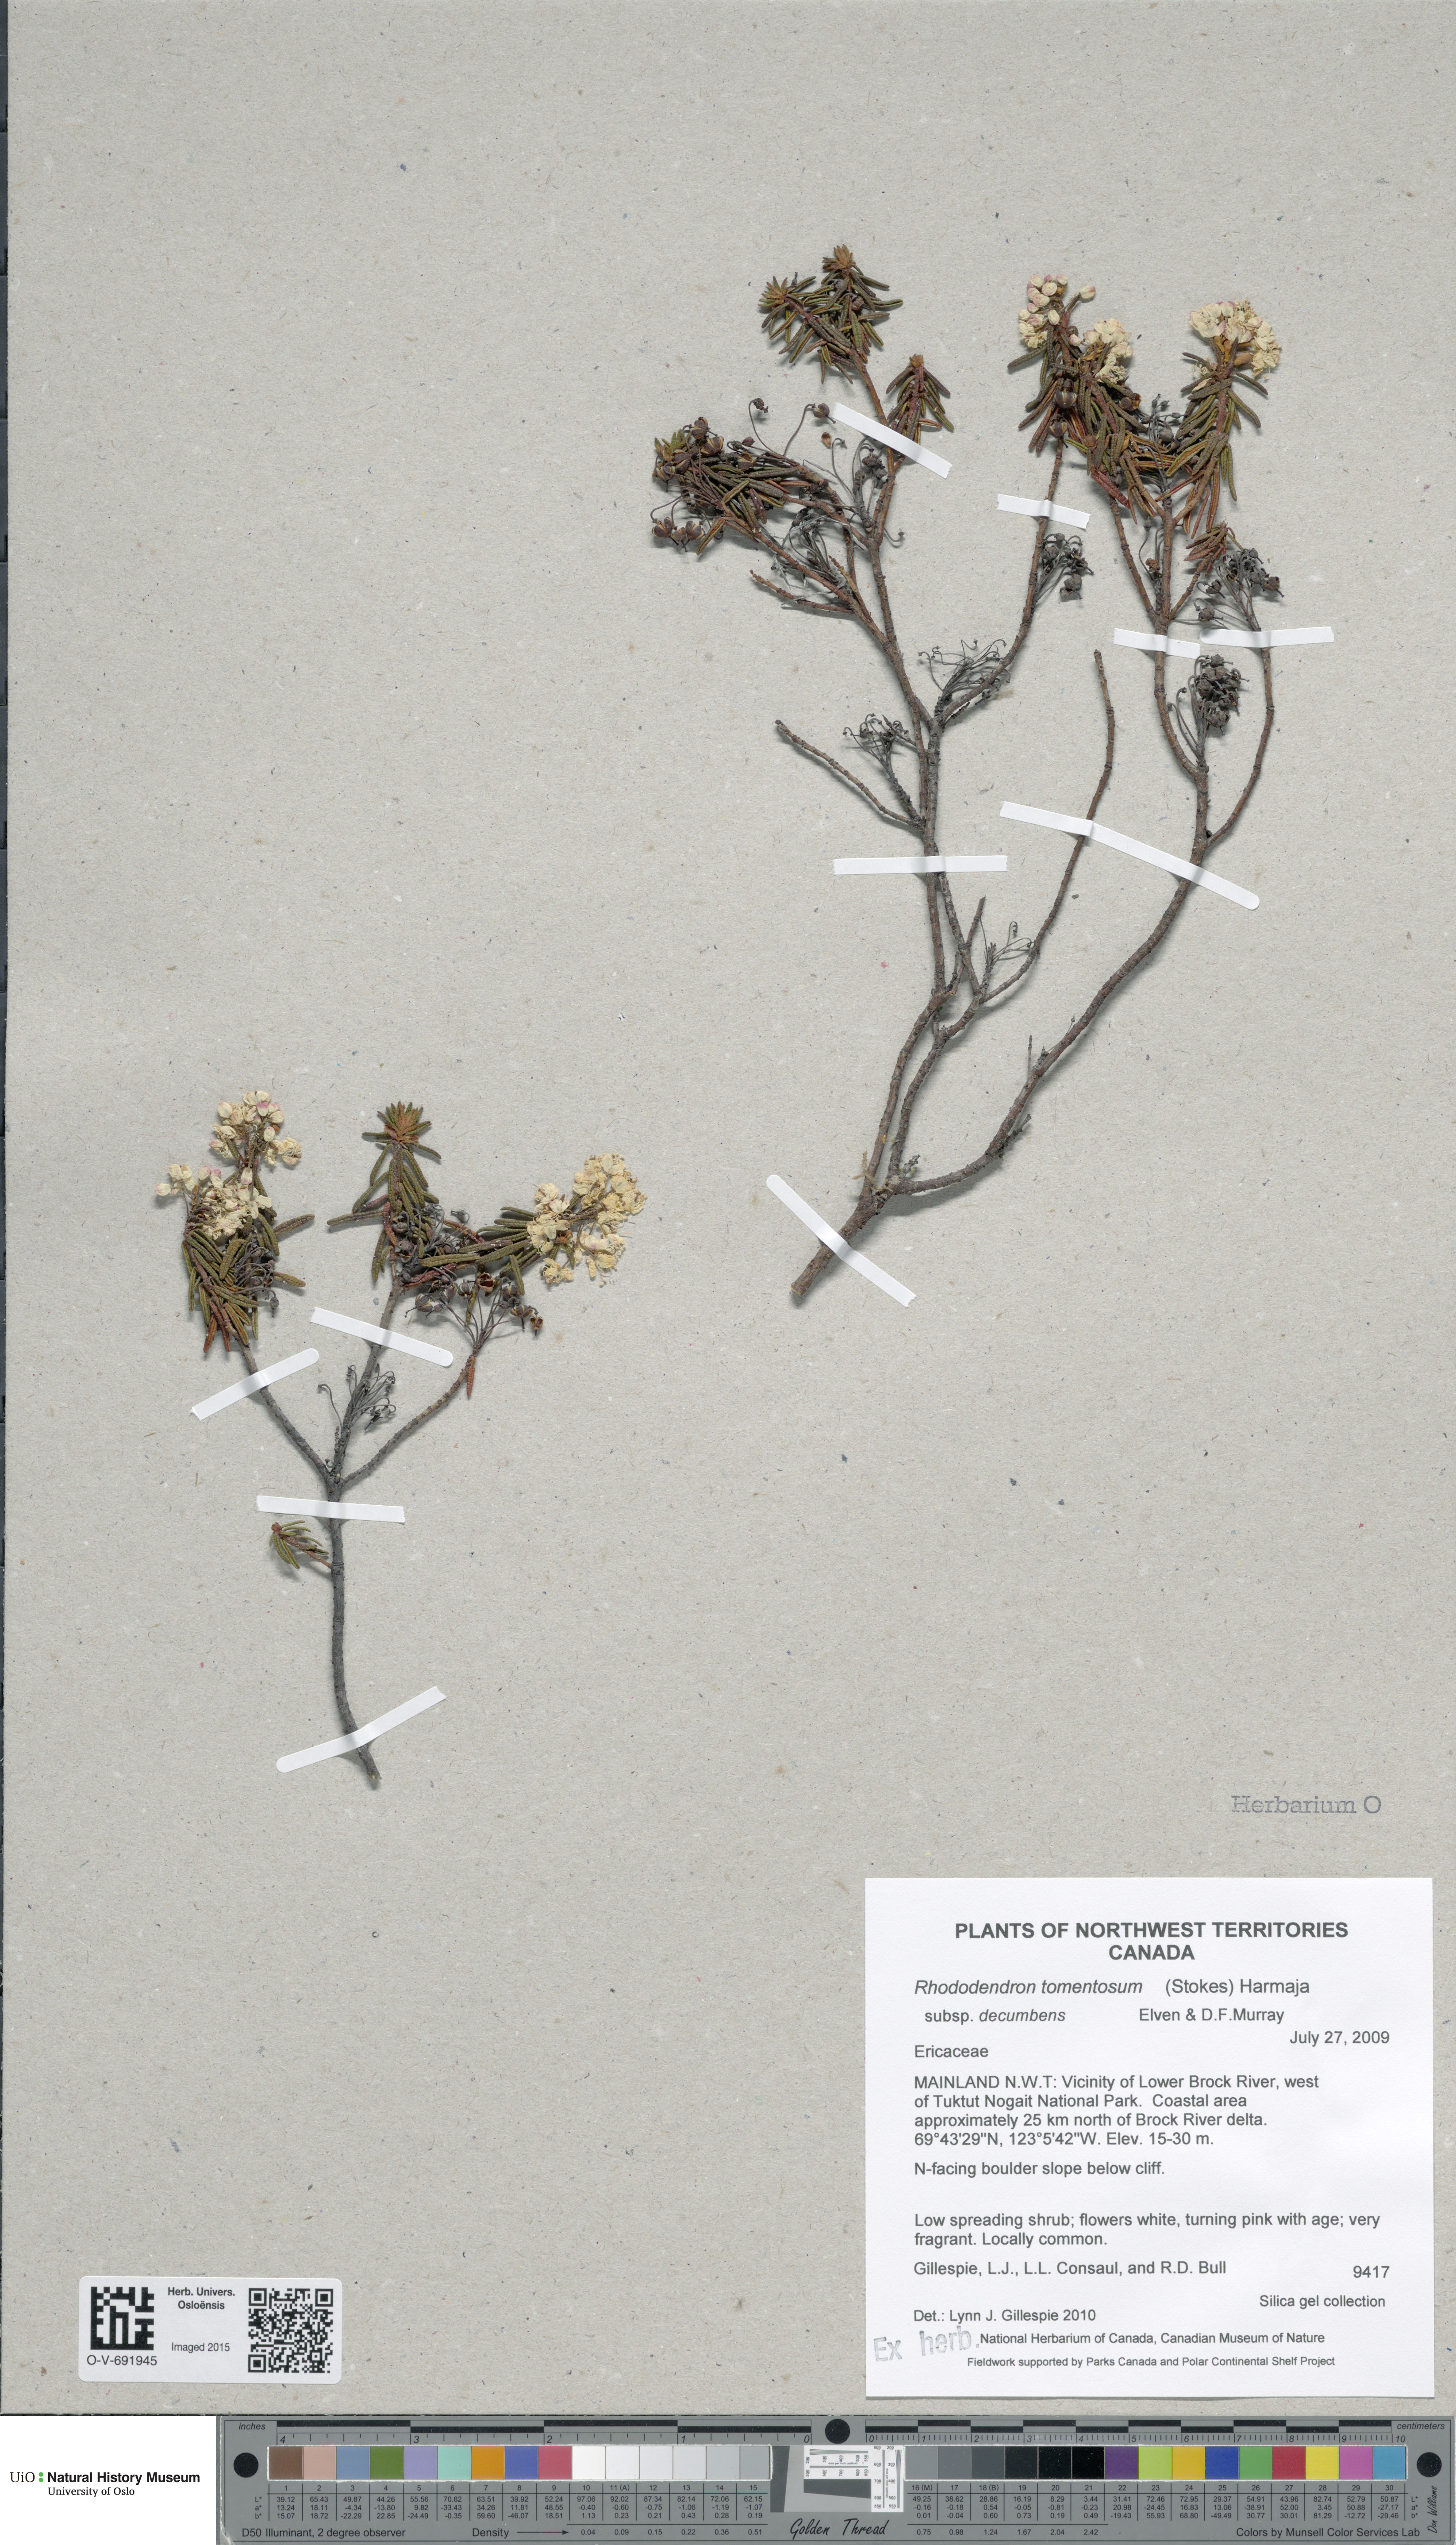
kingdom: Plantae
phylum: Tracheophyta
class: Magnoliopsida
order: Ericales
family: Ericaceae
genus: Rhododendron
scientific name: Rhododendron tomentosum
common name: Marsh labrador tea
